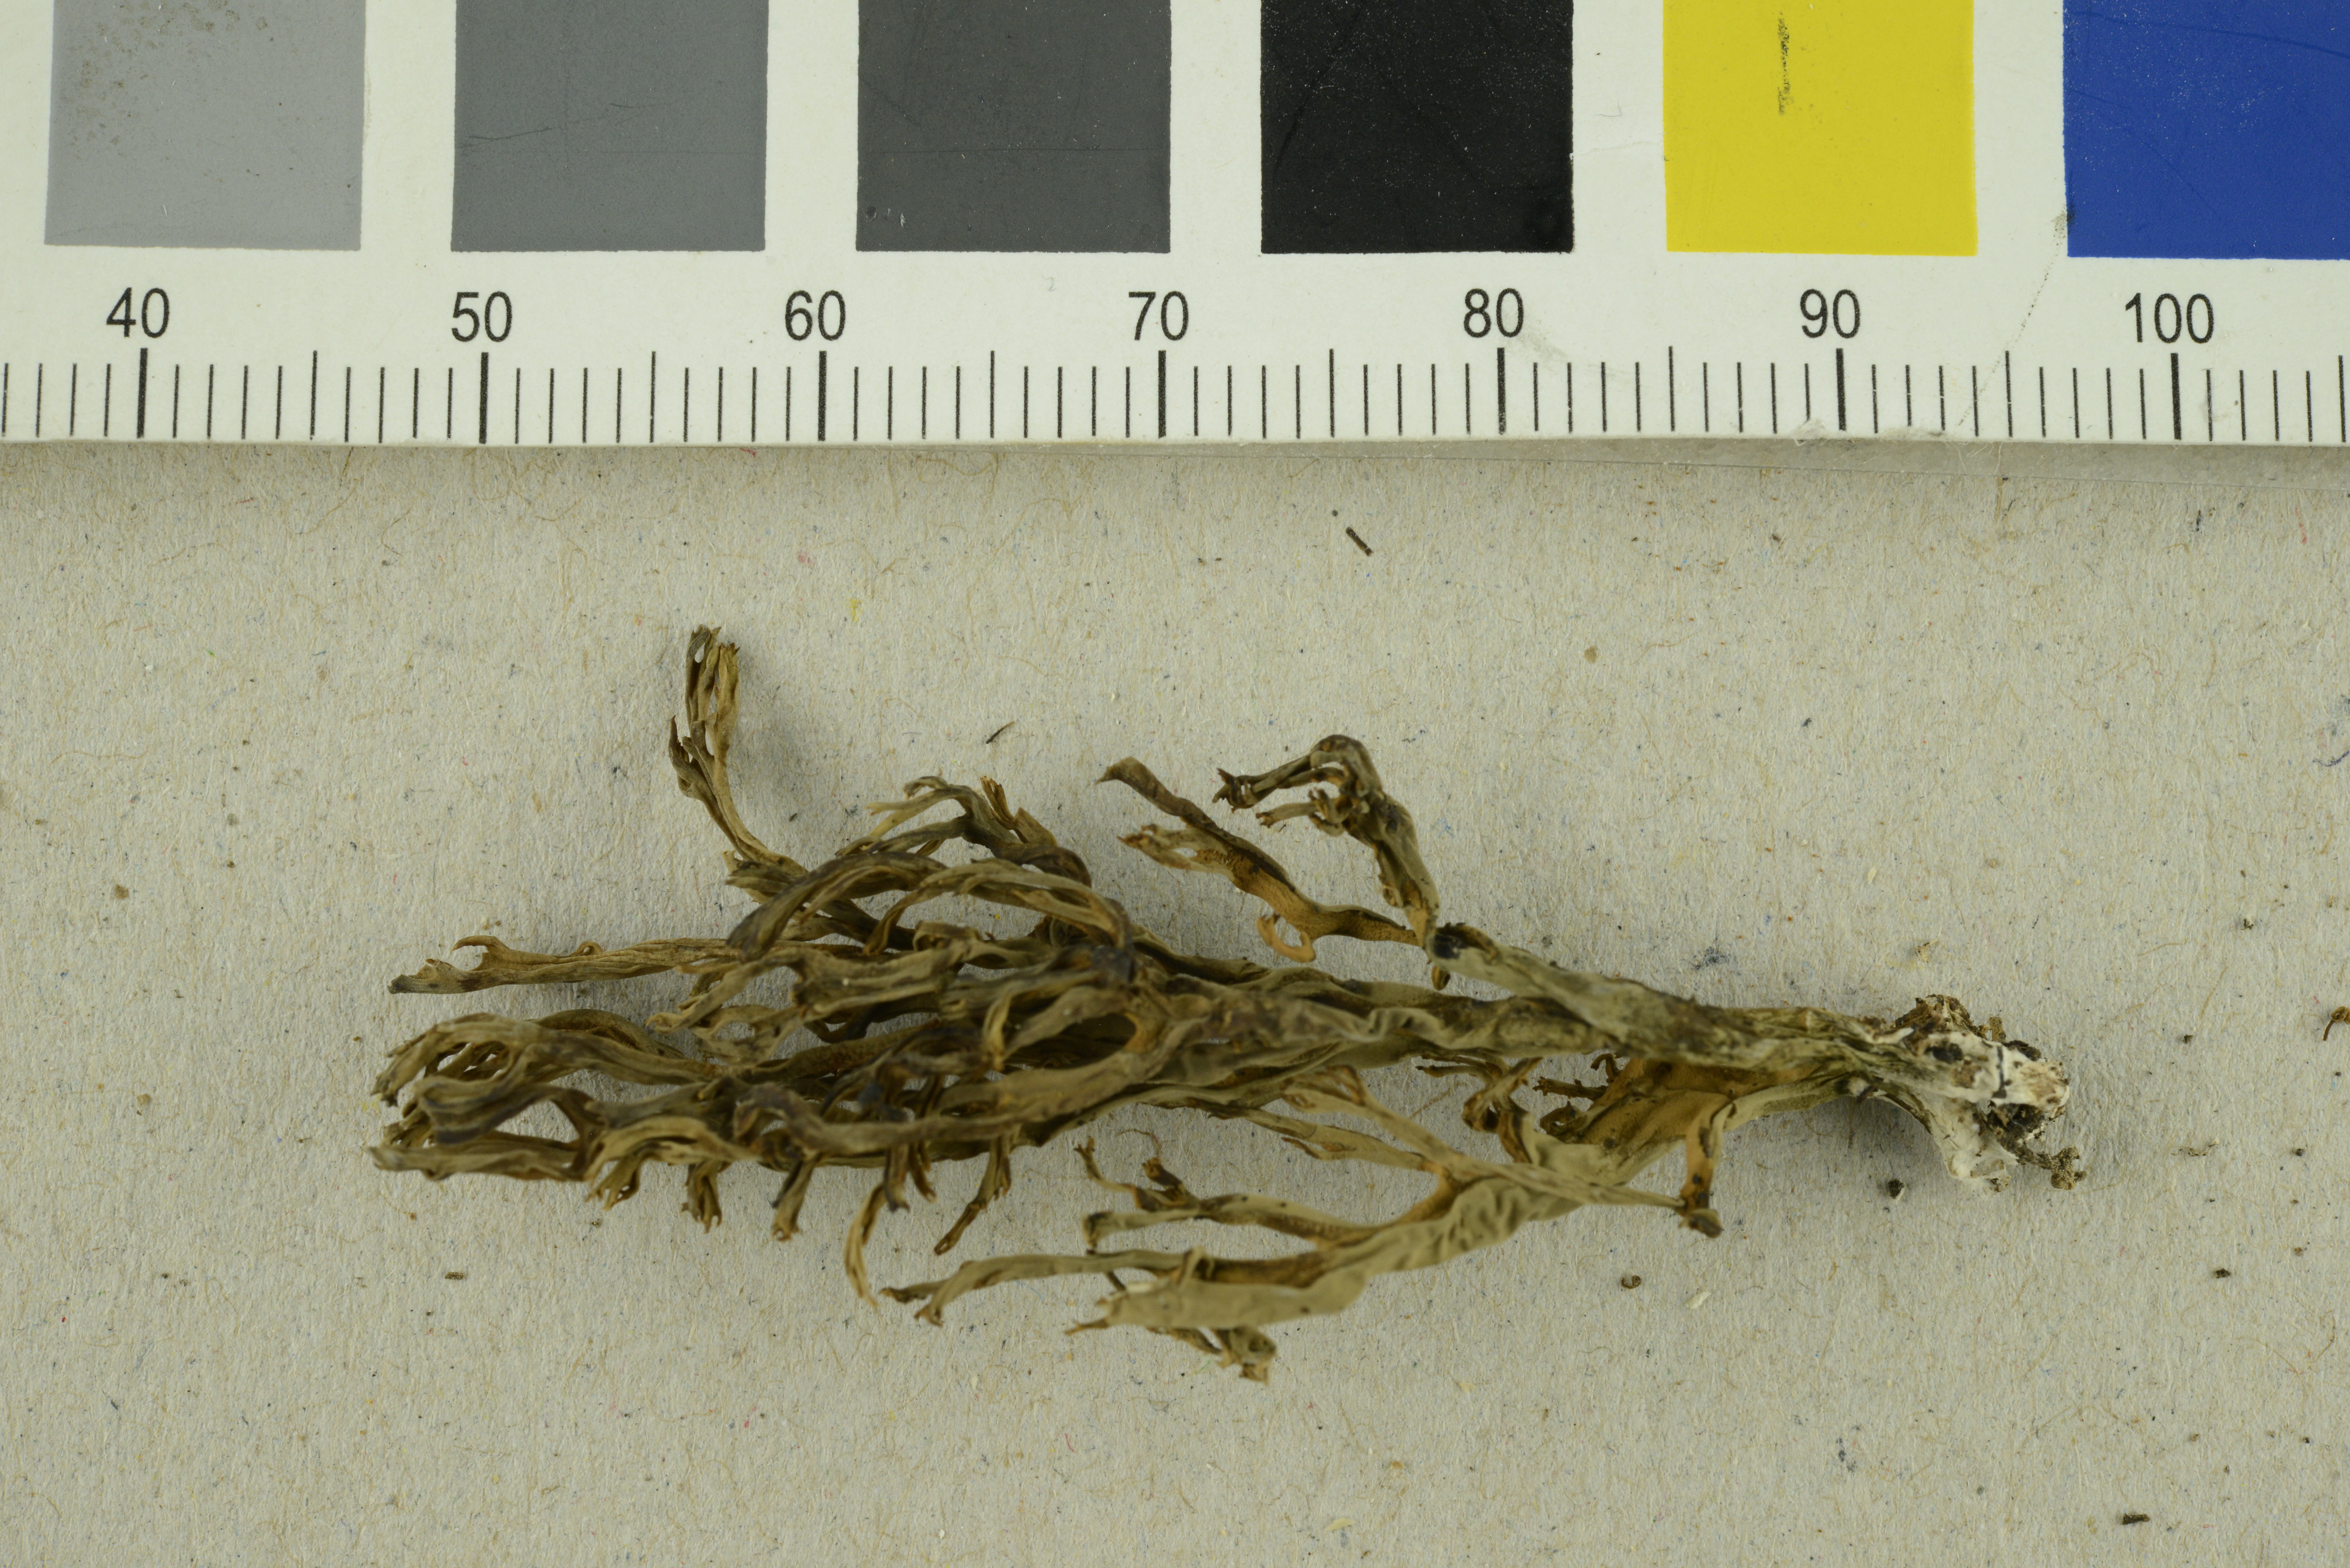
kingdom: Fungi
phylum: Basidiomycota
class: Agaricomycetes
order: Gomphales
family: Gomphaceae
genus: Ramaria
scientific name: Ramaria
